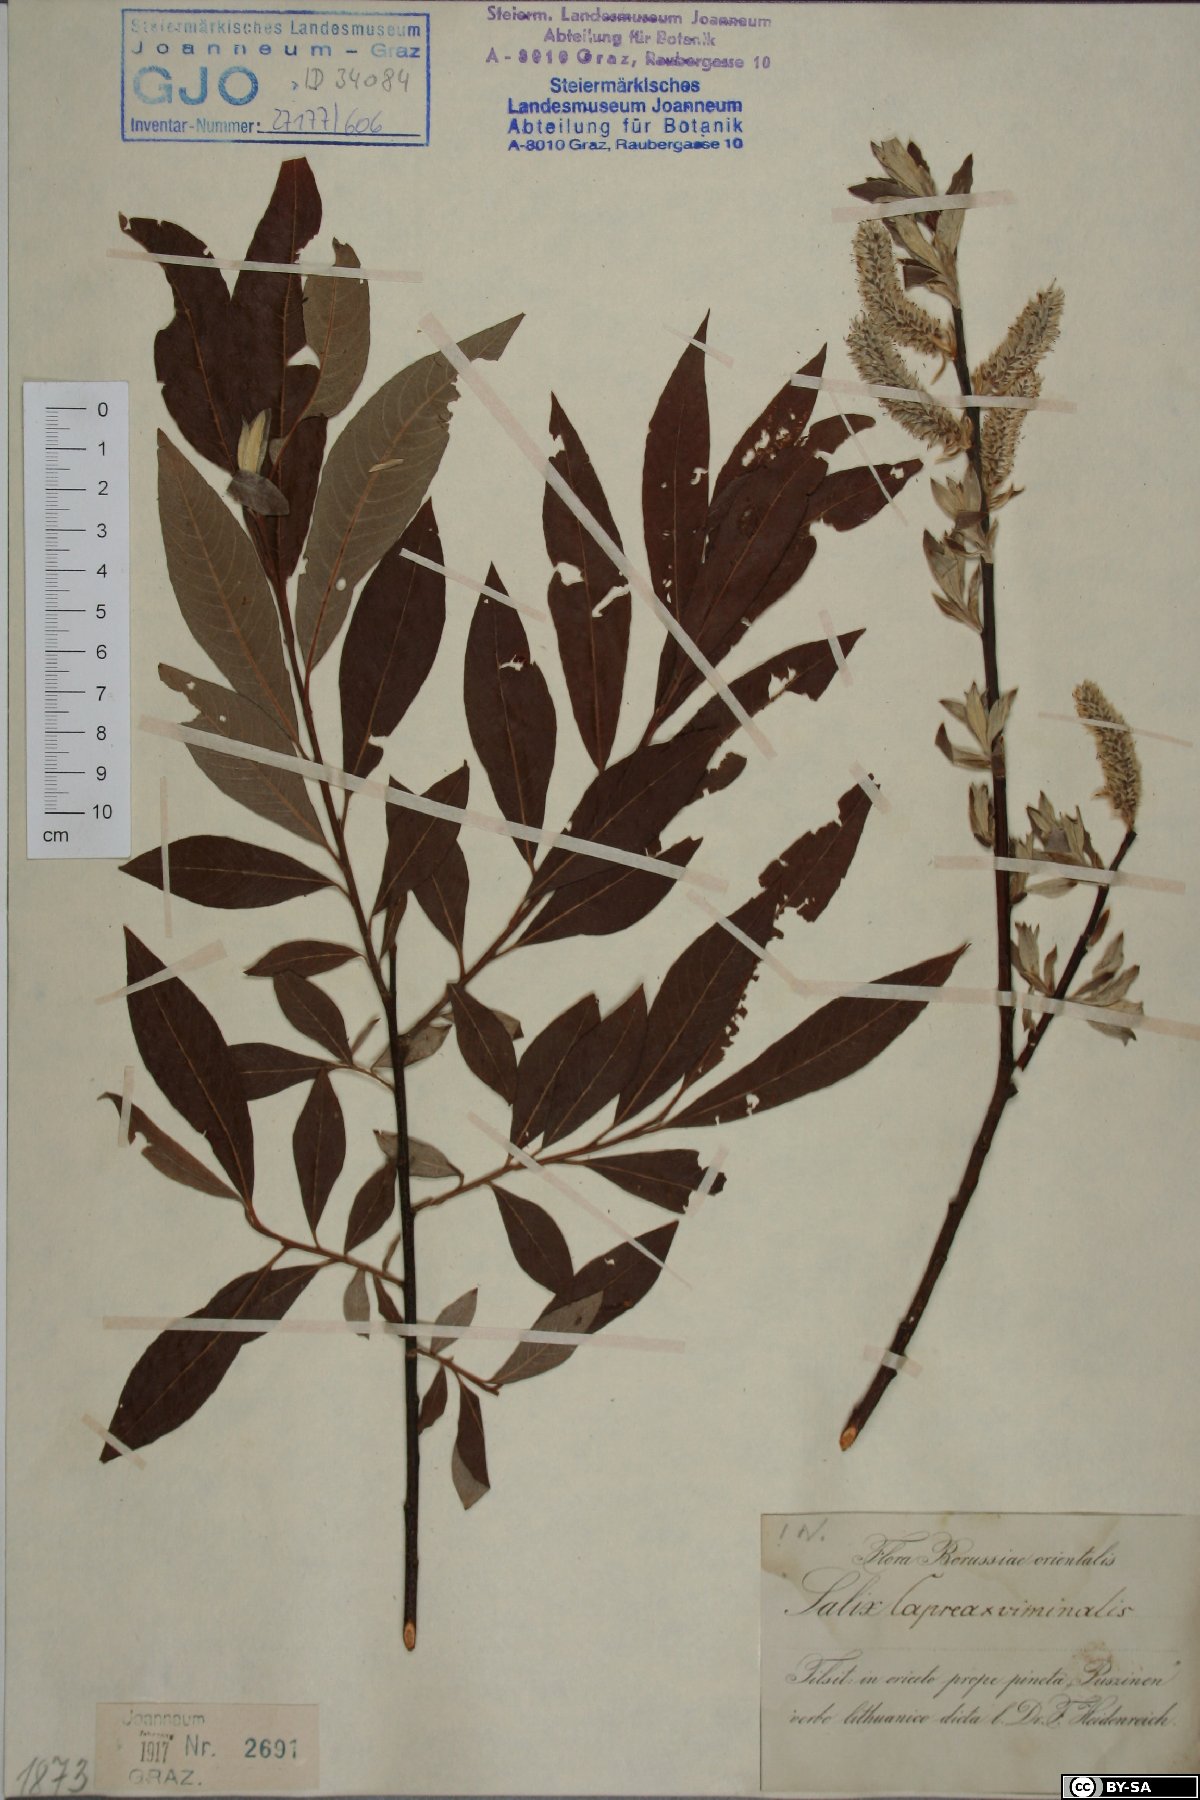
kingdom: Plantae
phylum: Tracheophyta
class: Magnoliopsida
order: Malpighiales
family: Salicaceae
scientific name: Salicaceae
